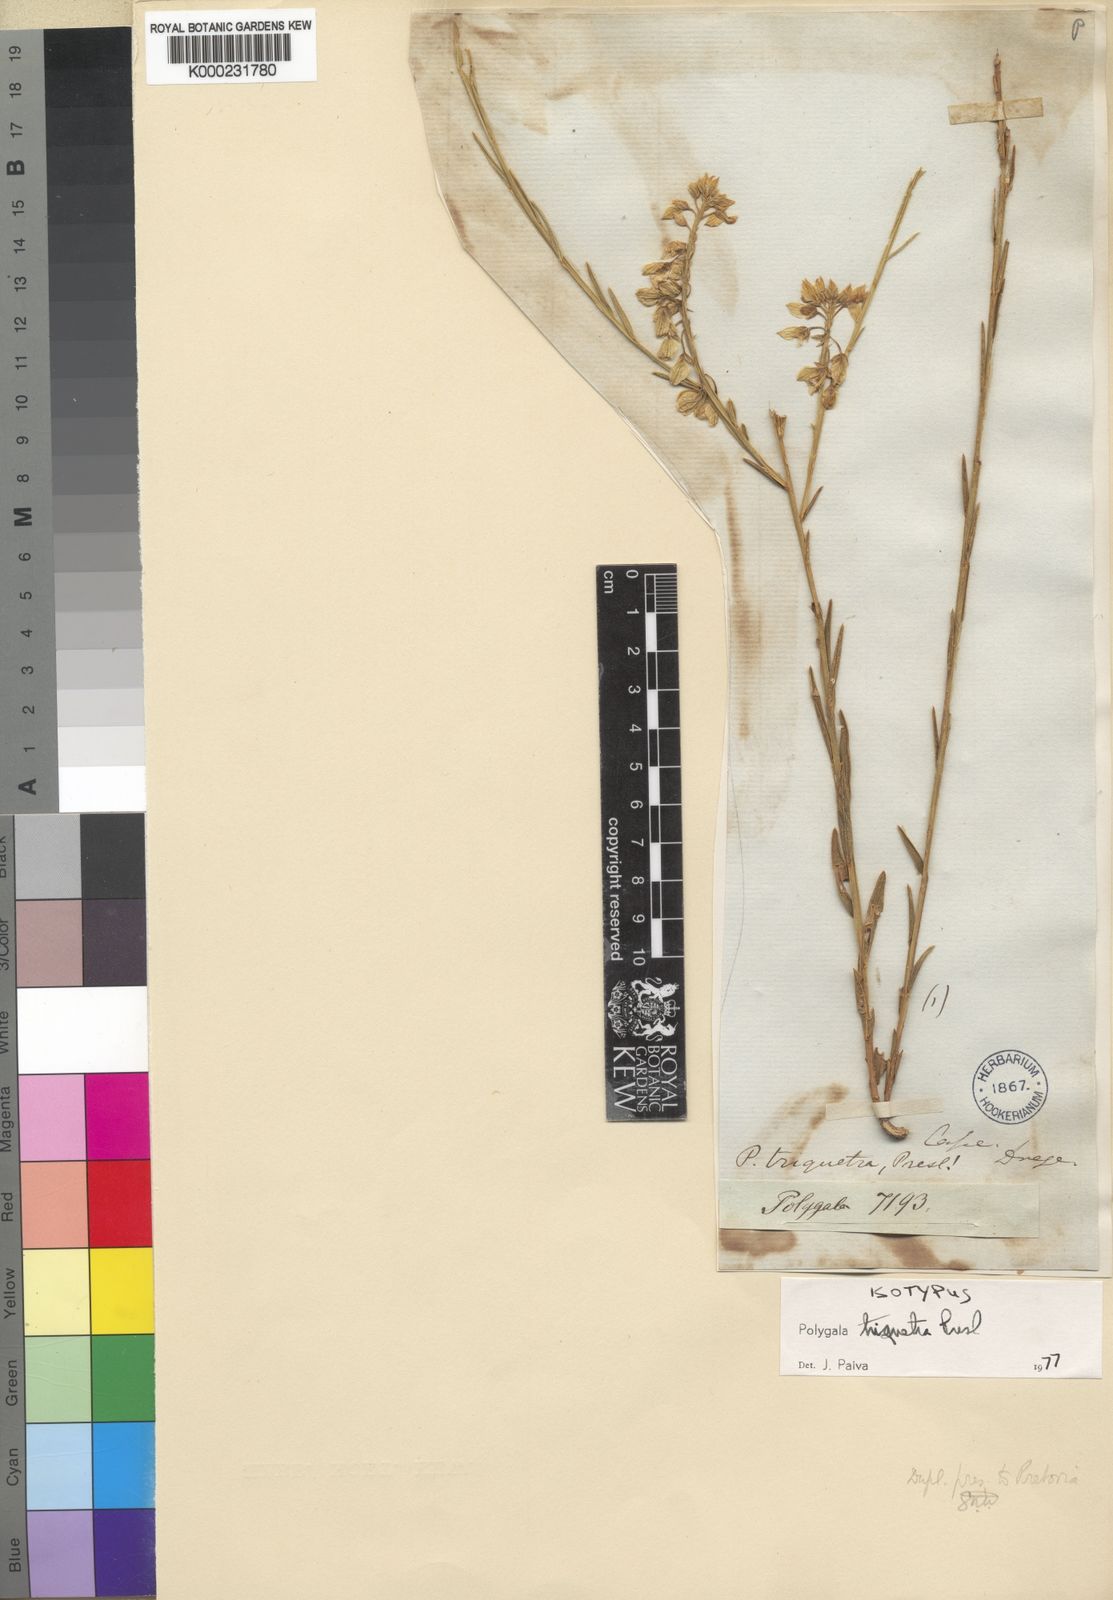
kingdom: Plantae
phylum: Tracheophyta
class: Magnoliopsida
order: Fabales
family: Polygalaceae
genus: Polygala
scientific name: Polygala triquetra
